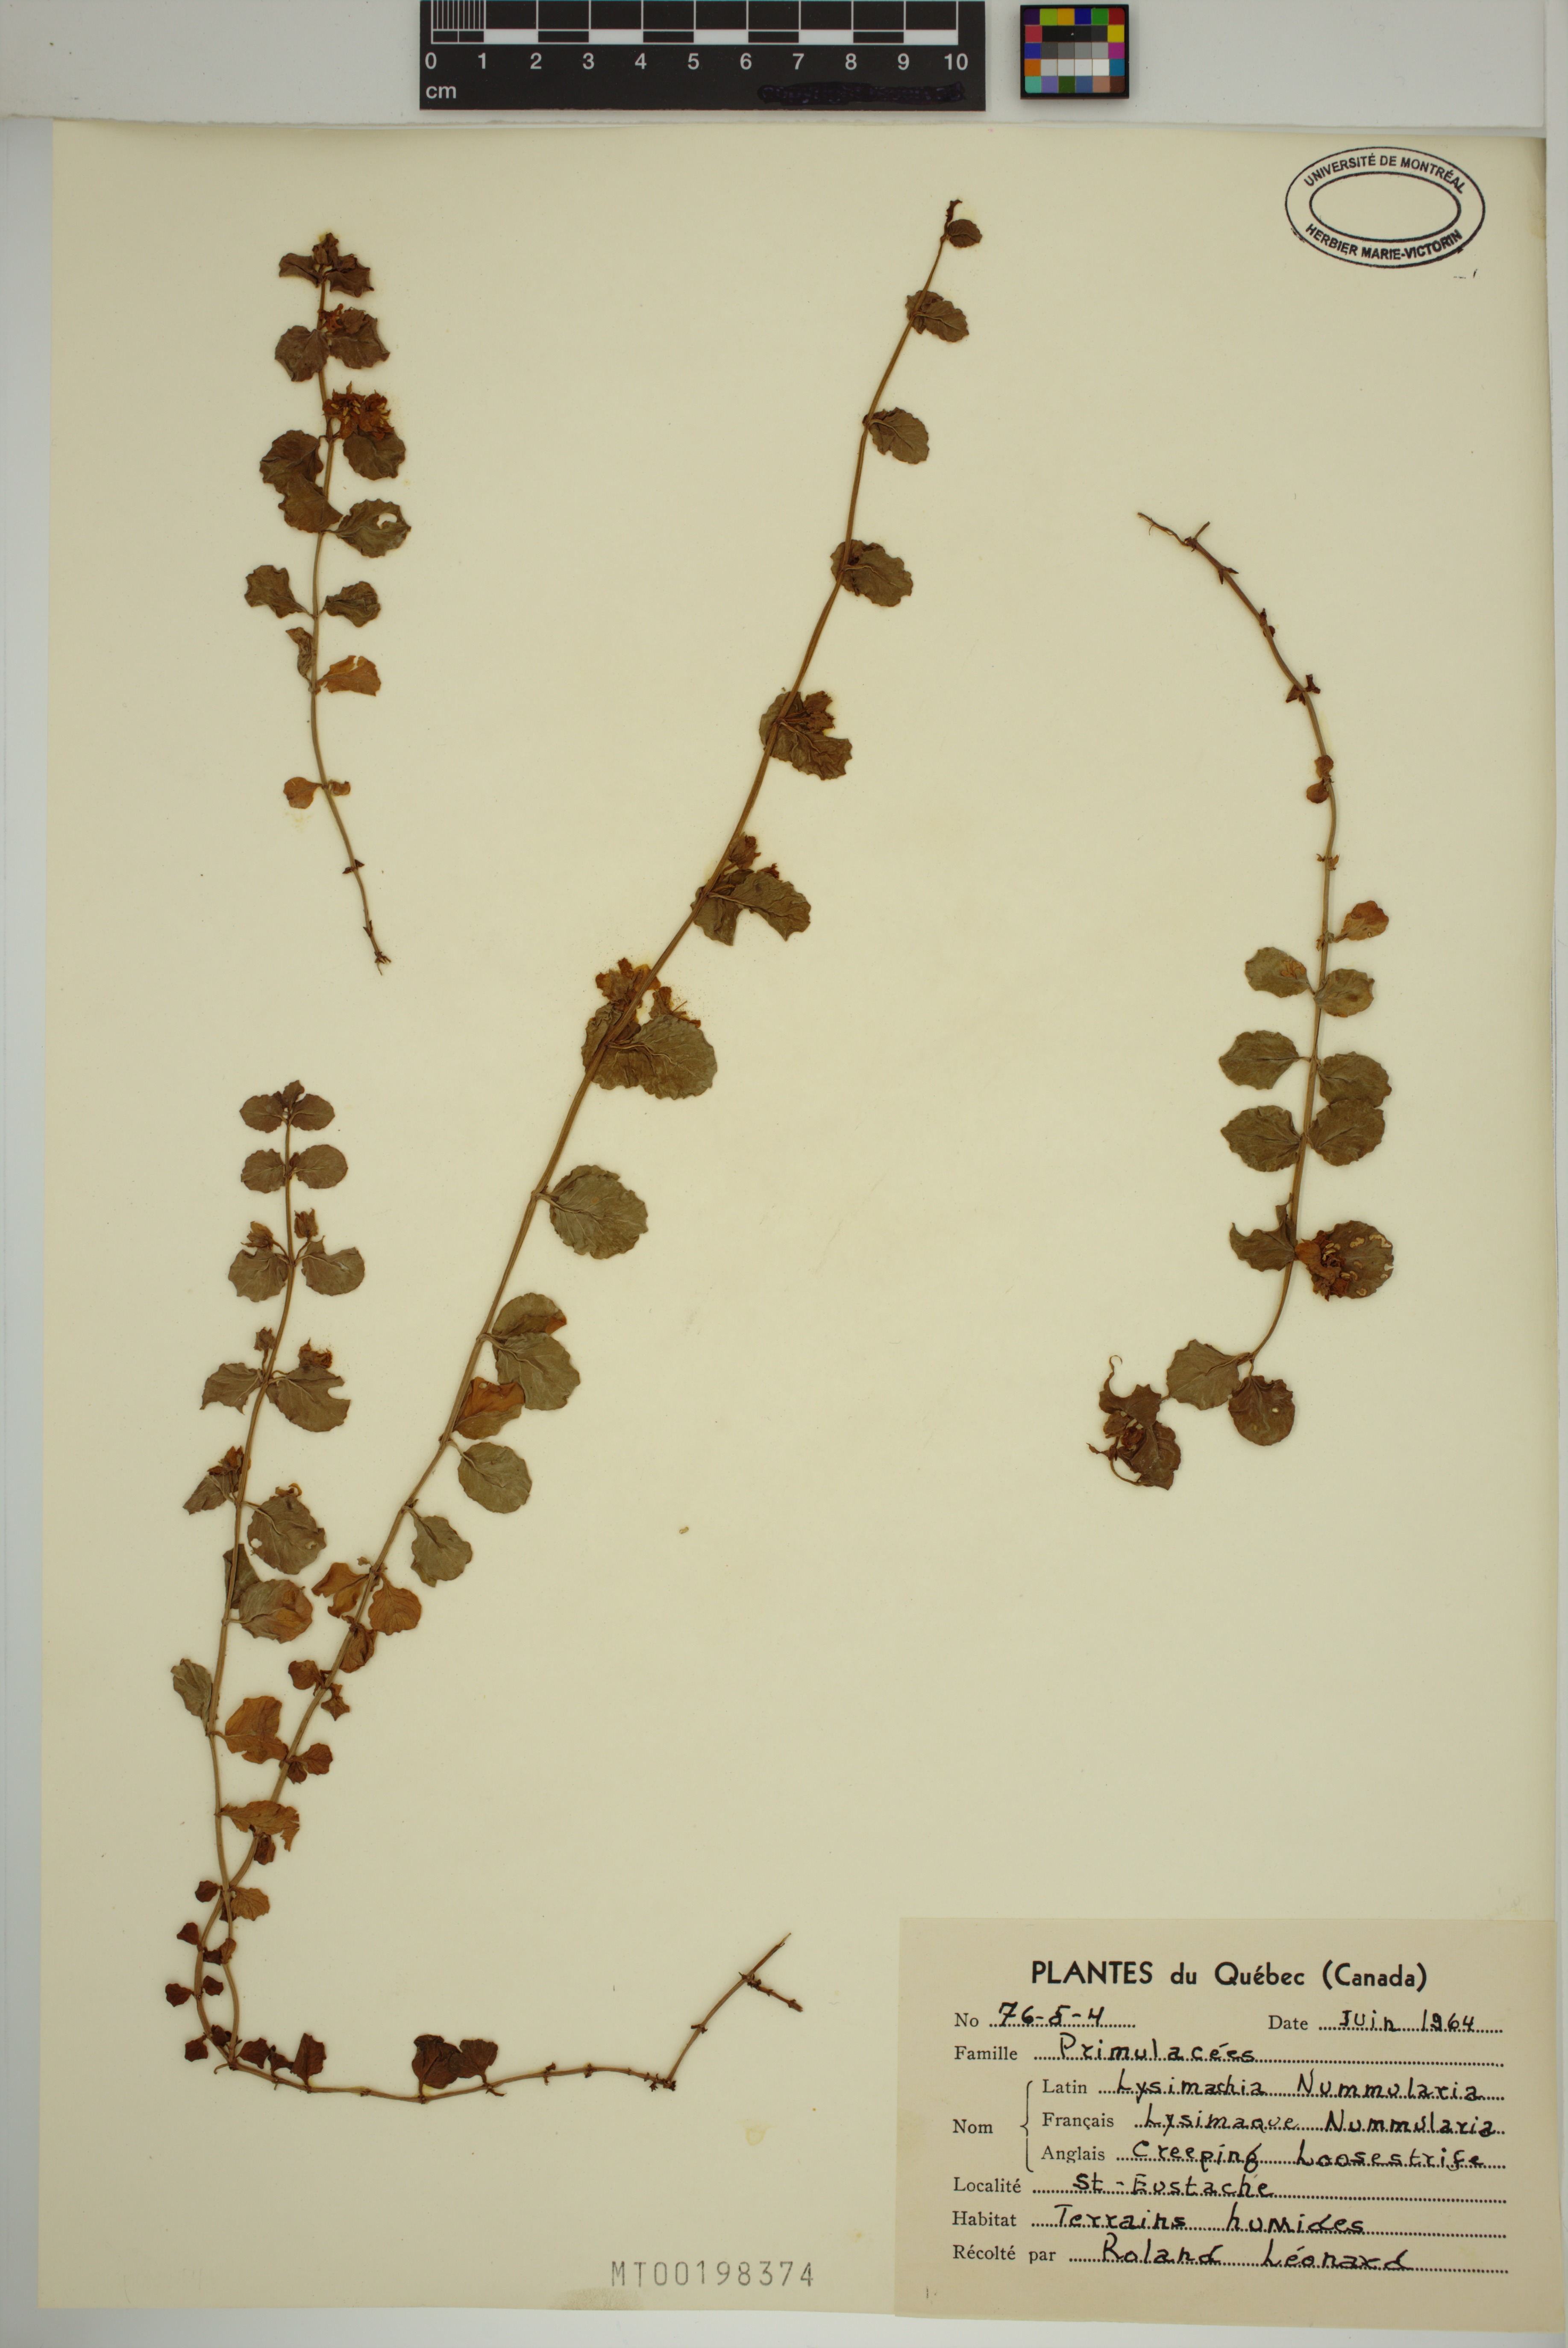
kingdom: Plantae
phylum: Tracheophyta
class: Magnoliopsida
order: Ericales
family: Primulaceae
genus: Lysimachia
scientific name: Lysimachia nummularia
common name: Moneywort
